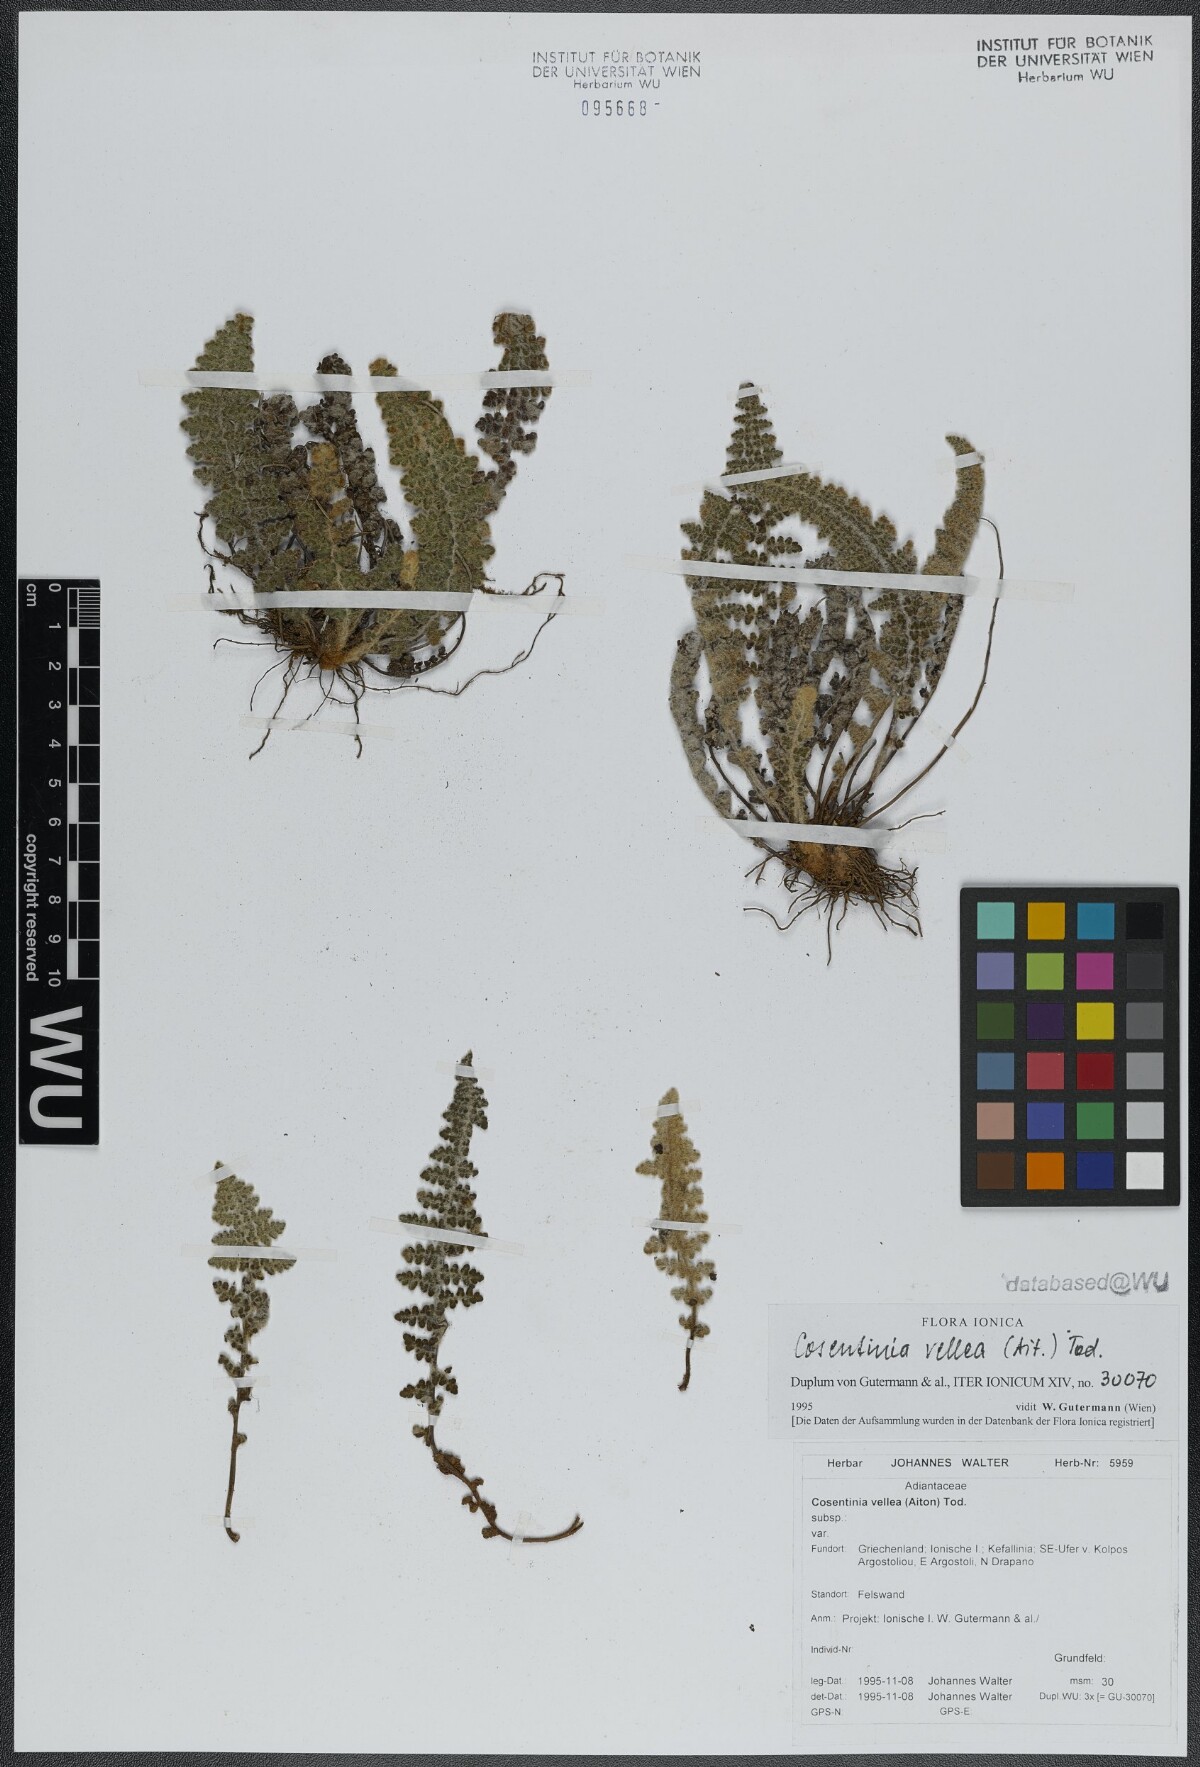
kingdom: Plantae
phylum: Tracheophyta
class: Polypodiopsida
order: Polypodiales
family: Pteridaceae
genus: Cosentinia
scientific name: Cosentinia vellea
